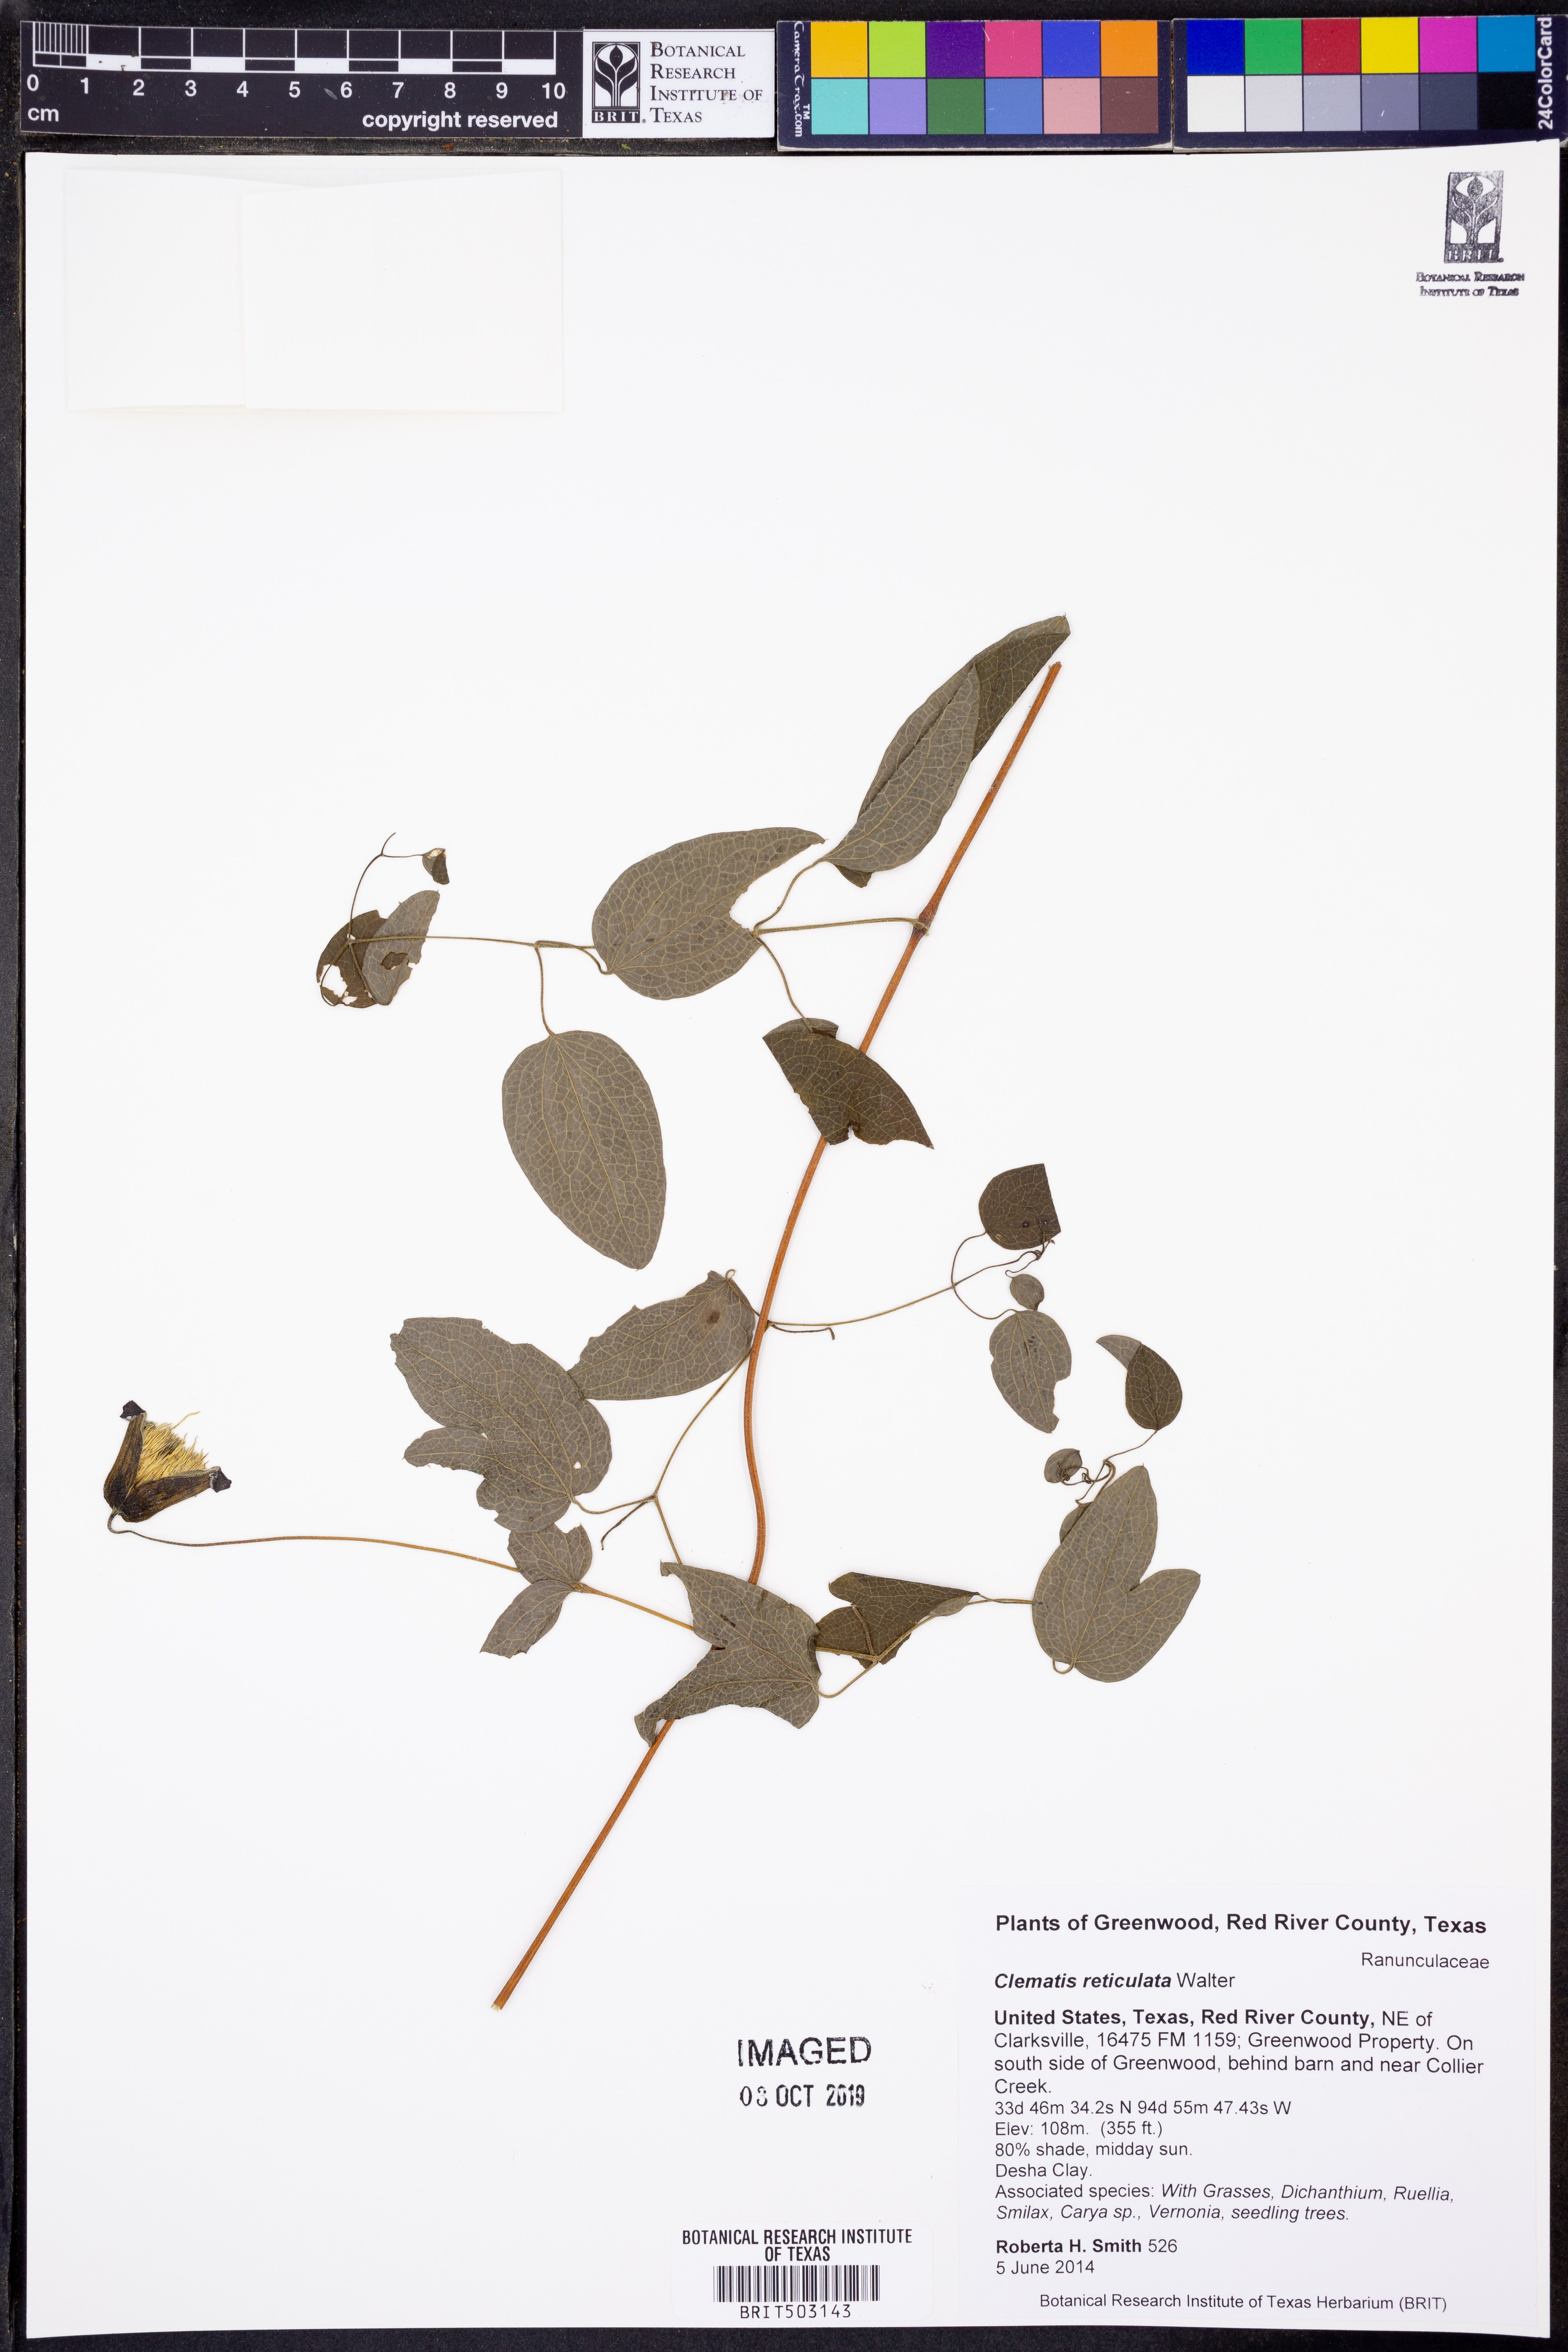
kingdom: Plantae
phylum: Tracheophyta
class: Magnoliopsida
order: Ranunculales
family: Ranunculaceae
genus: Clematis
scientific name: Clematis reticulata
